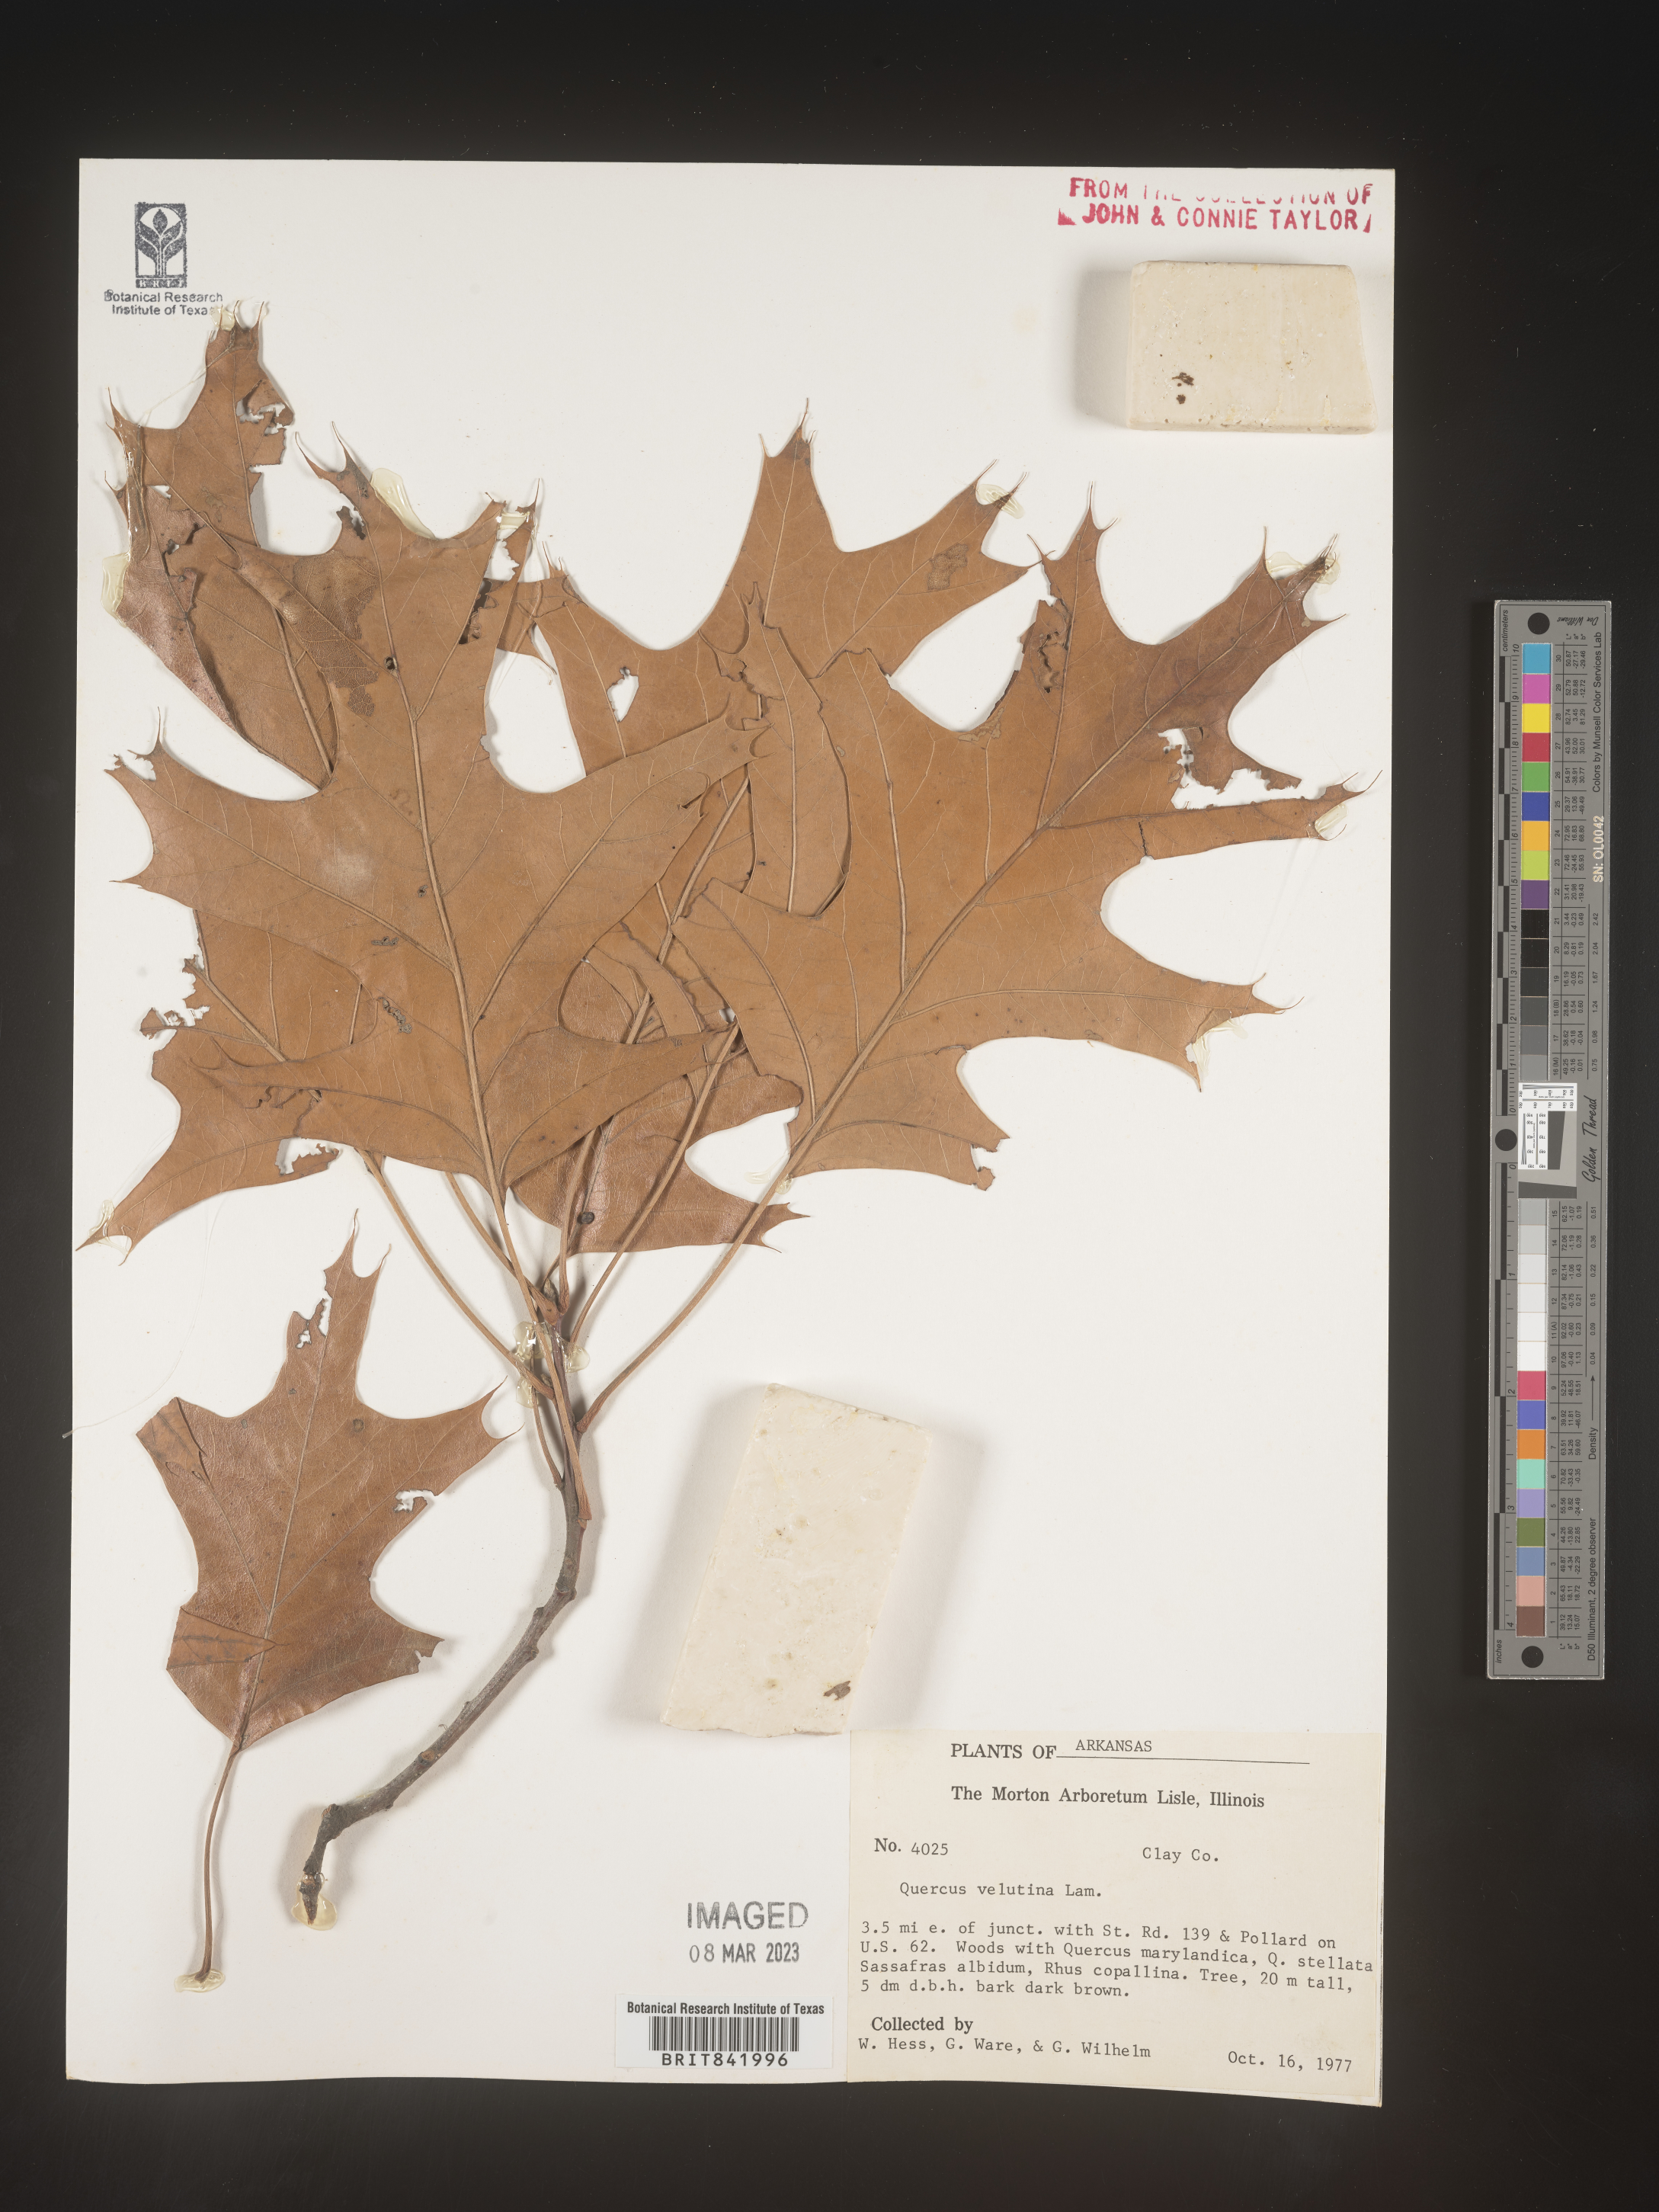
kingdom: Plantae
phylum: Tracheophyta
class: Magnoliopsida
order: Fagales
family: Fagaceae
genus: Quercus
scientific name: Quercus velutina
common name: Black oak
